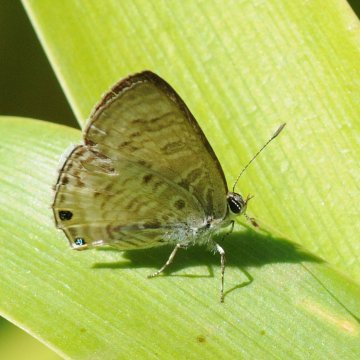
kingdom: Animalia
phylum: Arthropoda
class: Insecta
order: Lepidoptera
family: Lycaenidae
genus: Anthene
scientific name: Anthene
